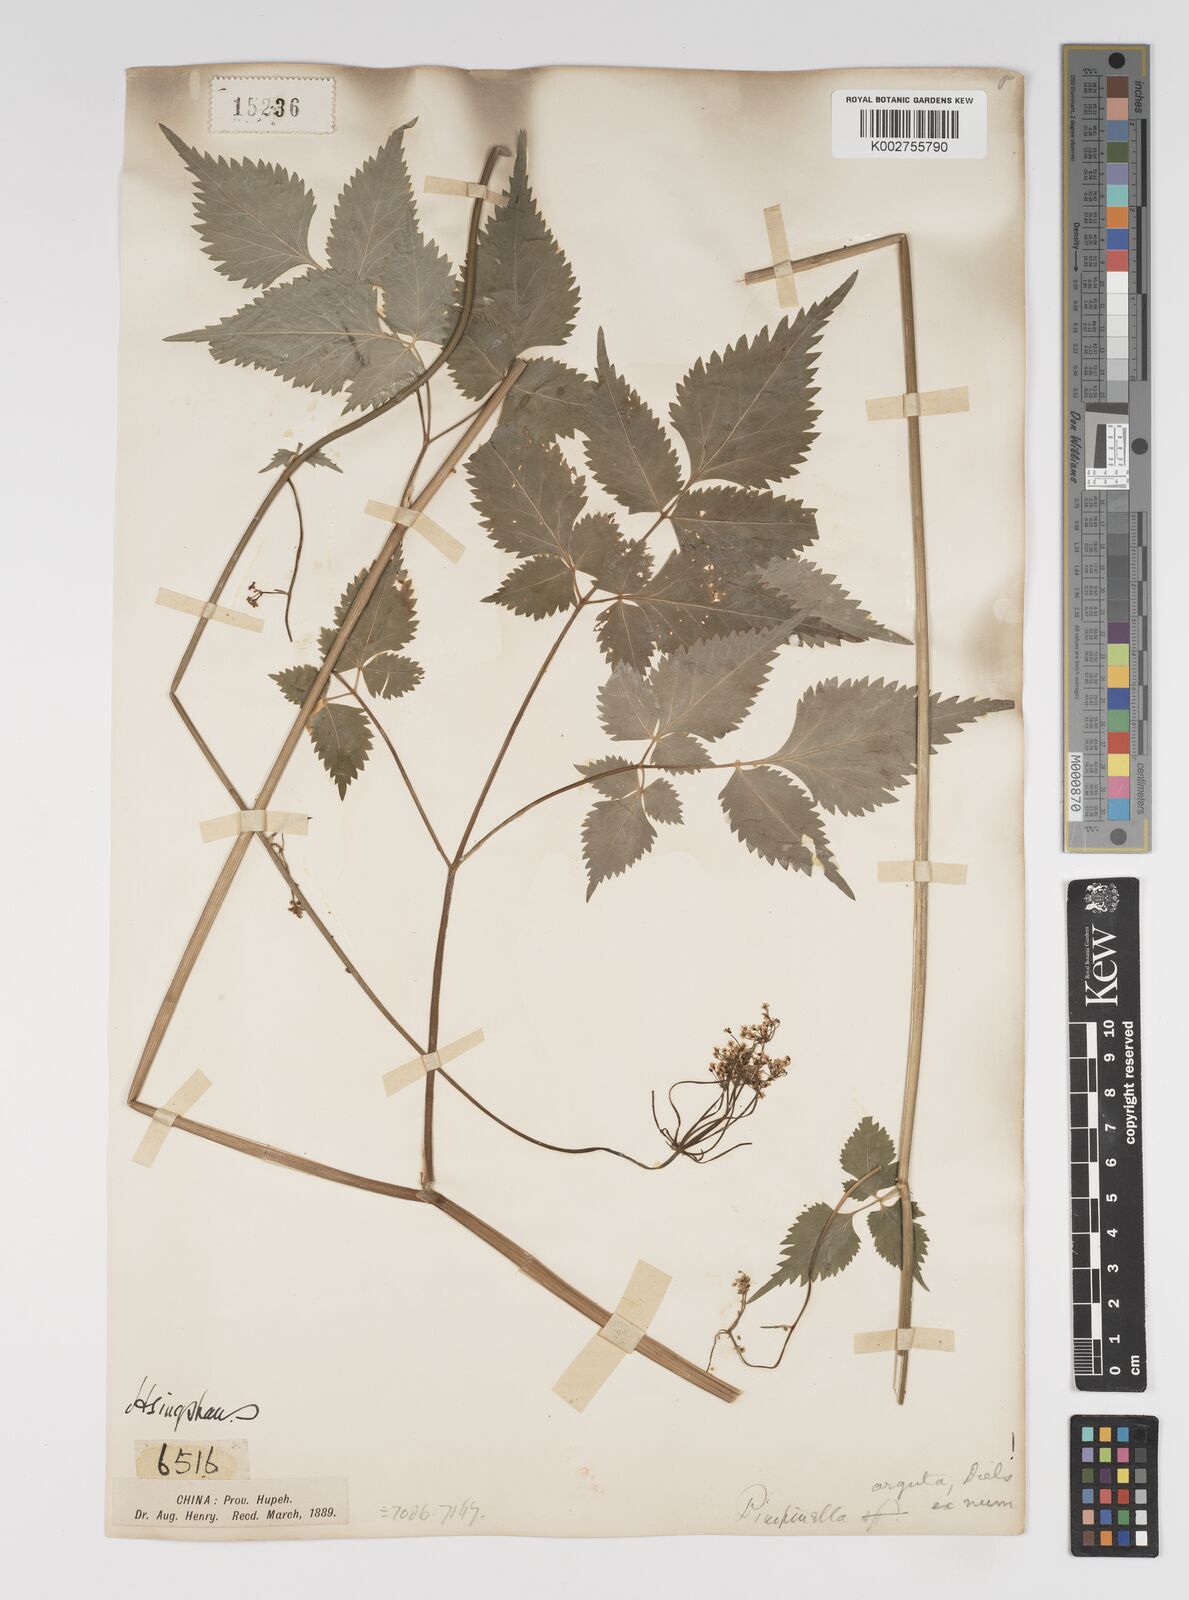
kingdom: Plantae
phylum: Tracheophyta
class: Magnoliopsida
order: Apiales
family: Apiaceae
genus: Spuriopimpinella
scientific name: Spuriopimpinella arguta
